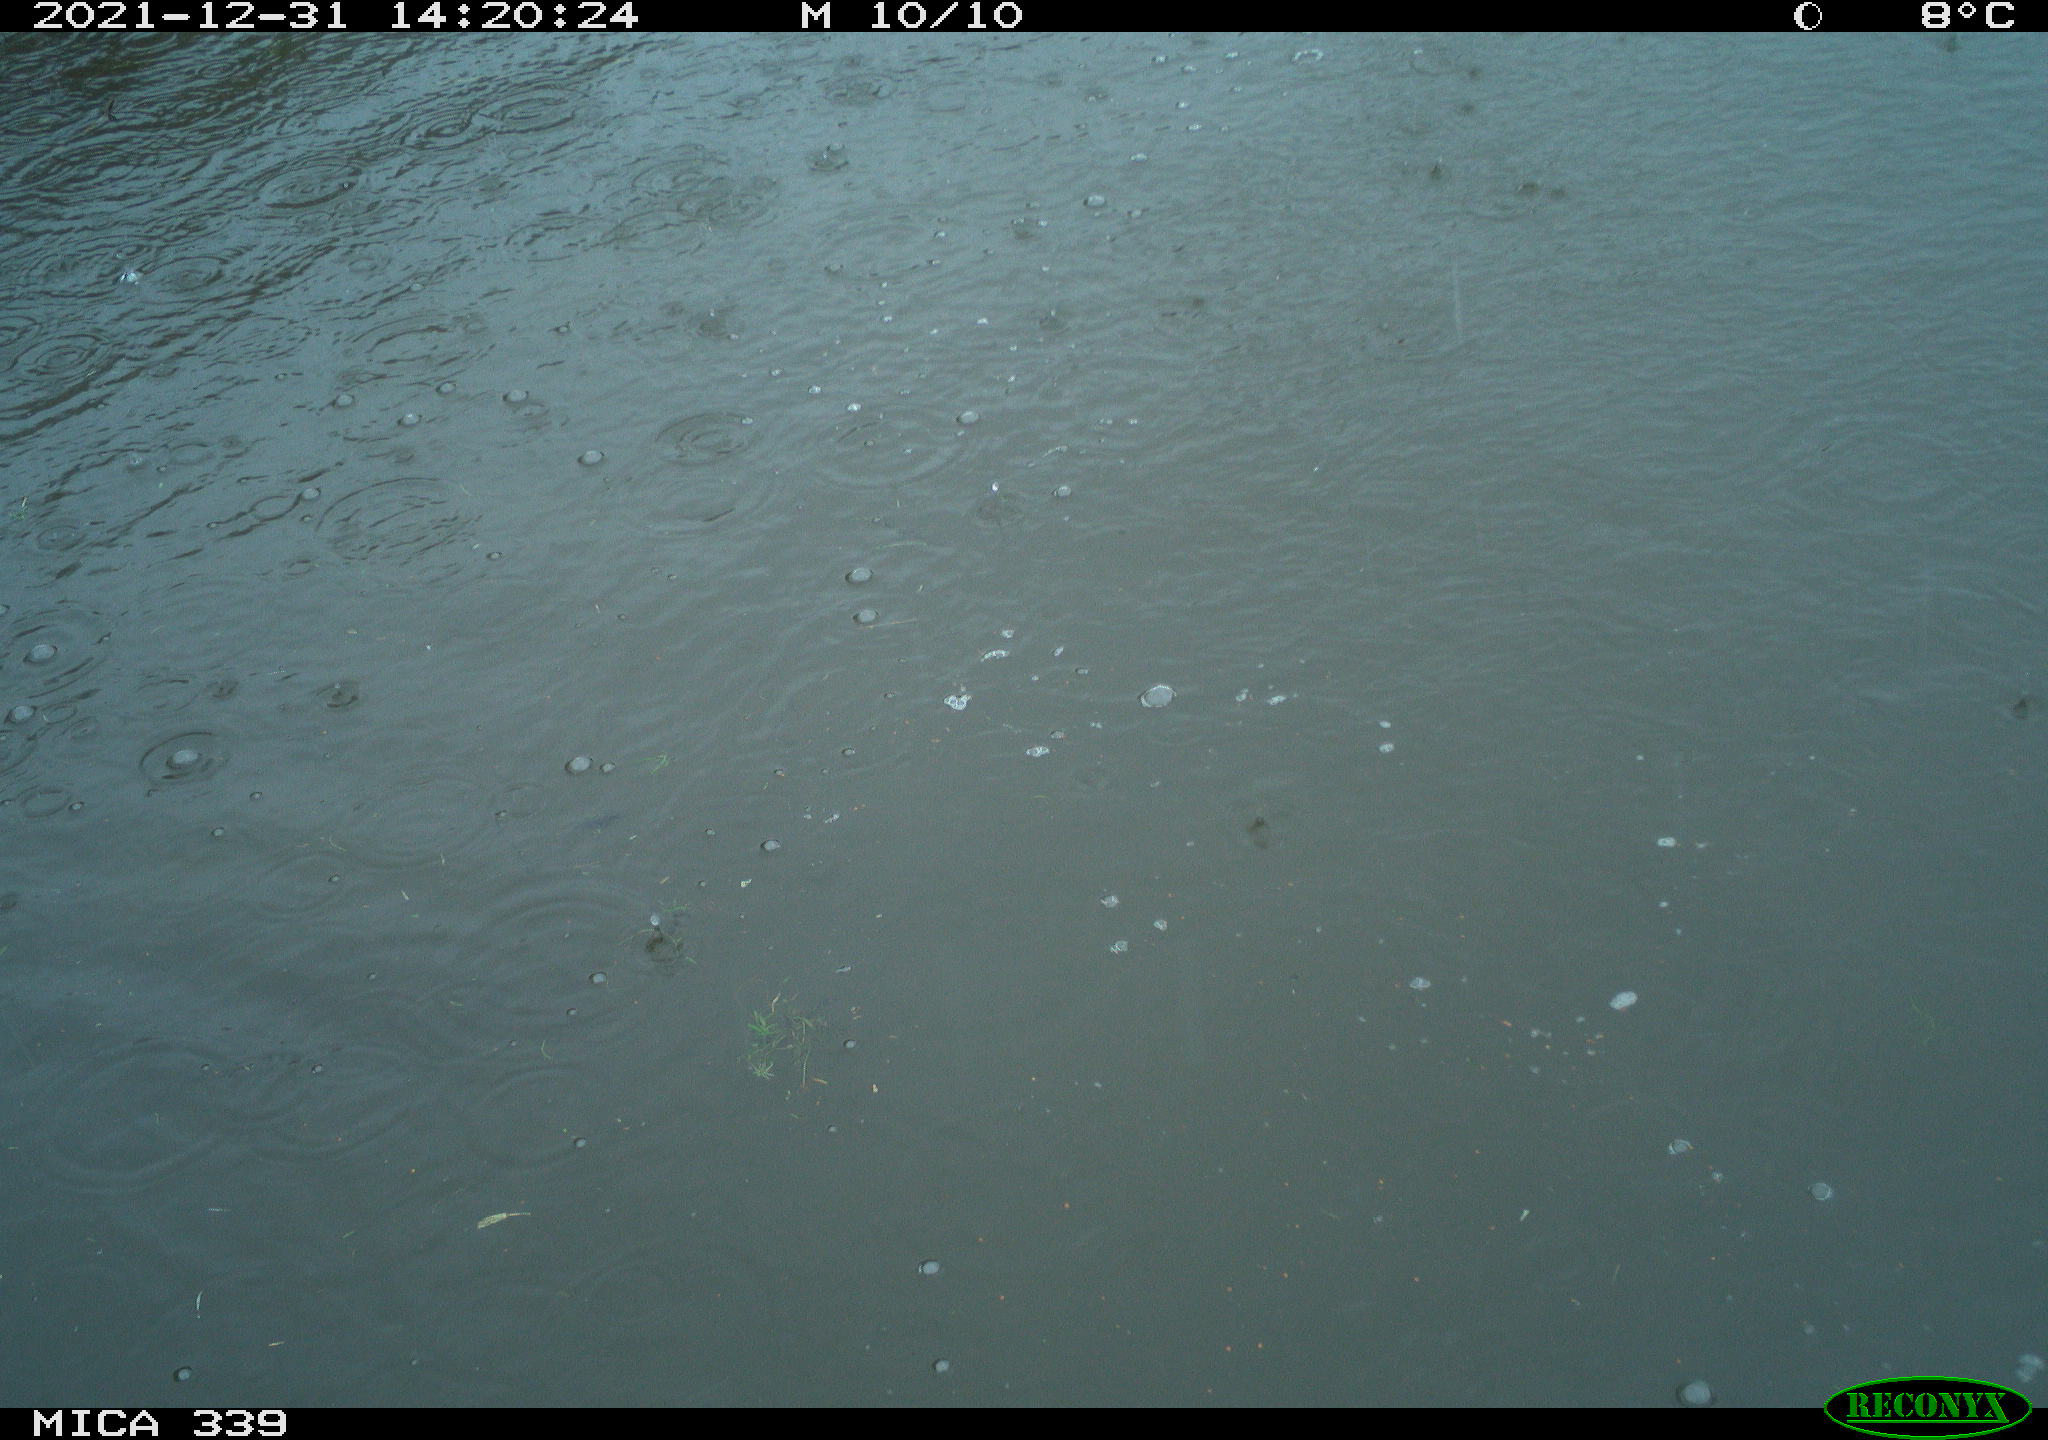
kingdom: Animalia
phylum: Chordata
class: Aves
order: Suliformes
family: Phalacrocoracidae
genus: Phalacrocorax
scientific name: Phalacrocorax carbo
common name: Great cormorant
